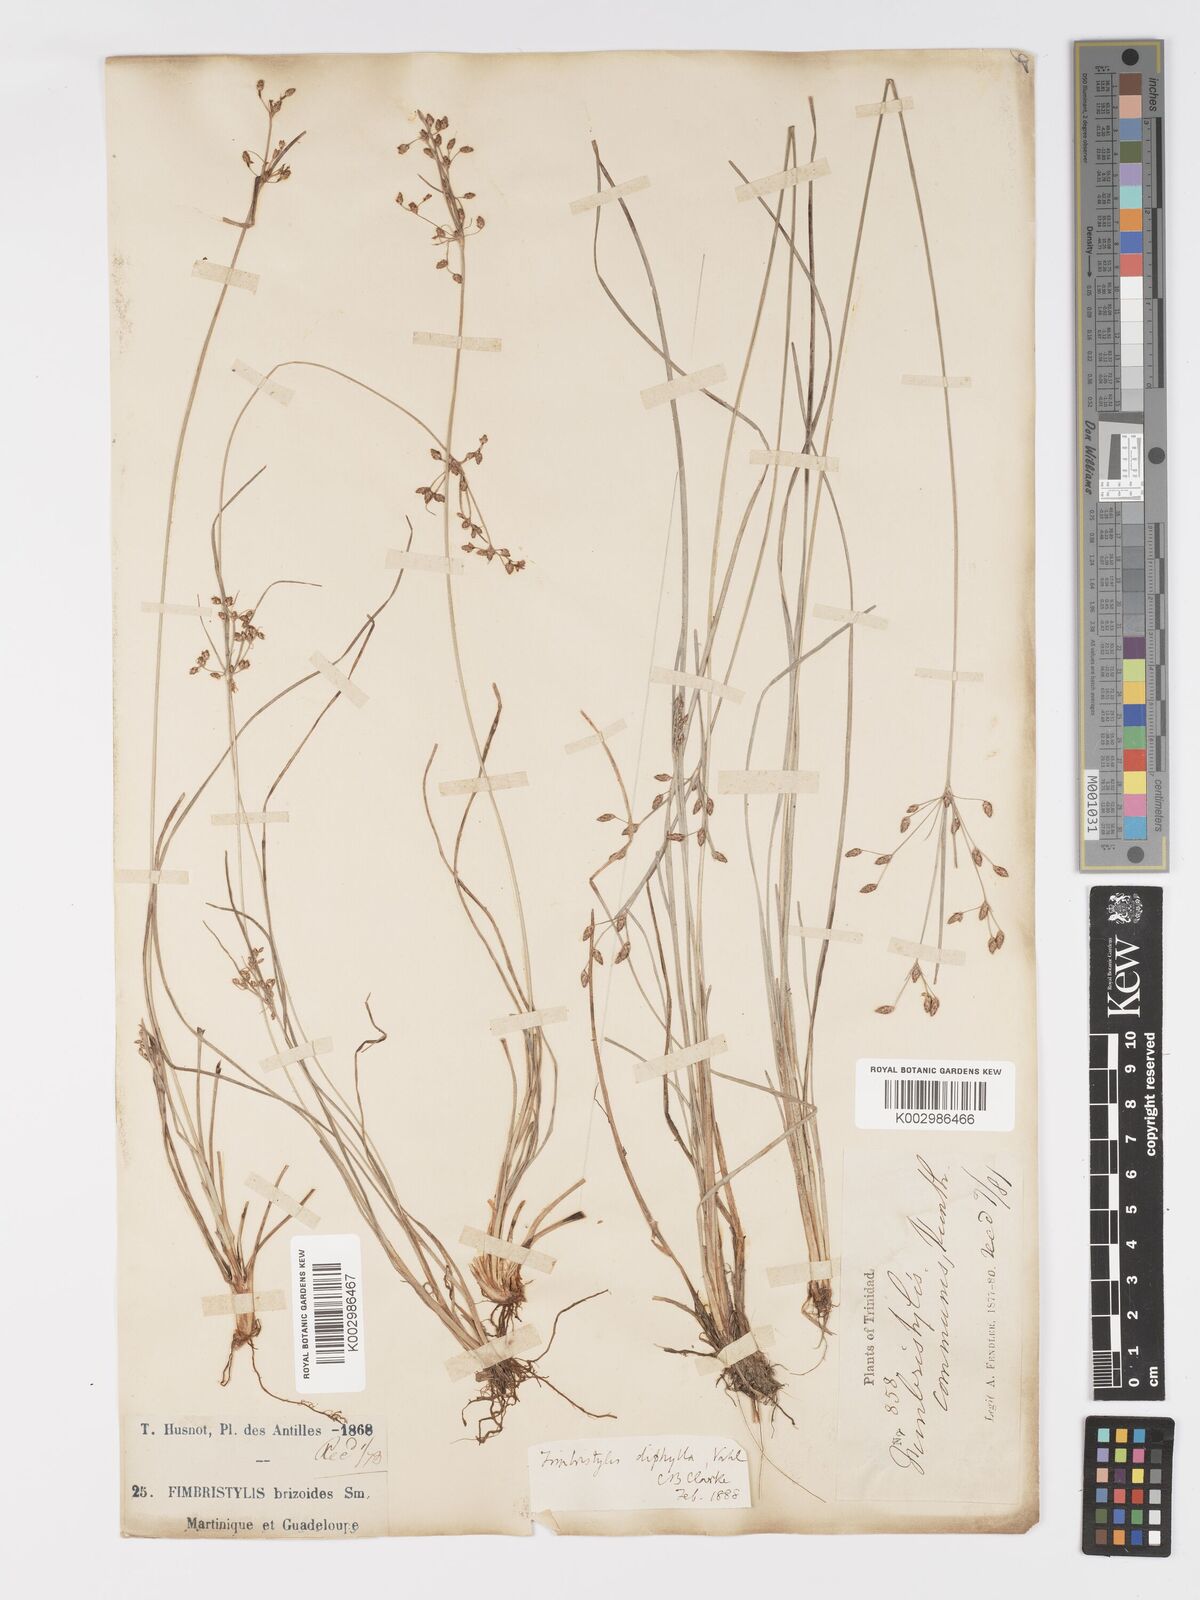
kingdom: Plantae
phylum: Tracheophyta
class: Liliopsida
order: Poales
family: Cyperaceae
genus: Fimbristylis
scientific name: Fimbristylis dichotoma
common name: Forked fimbry
